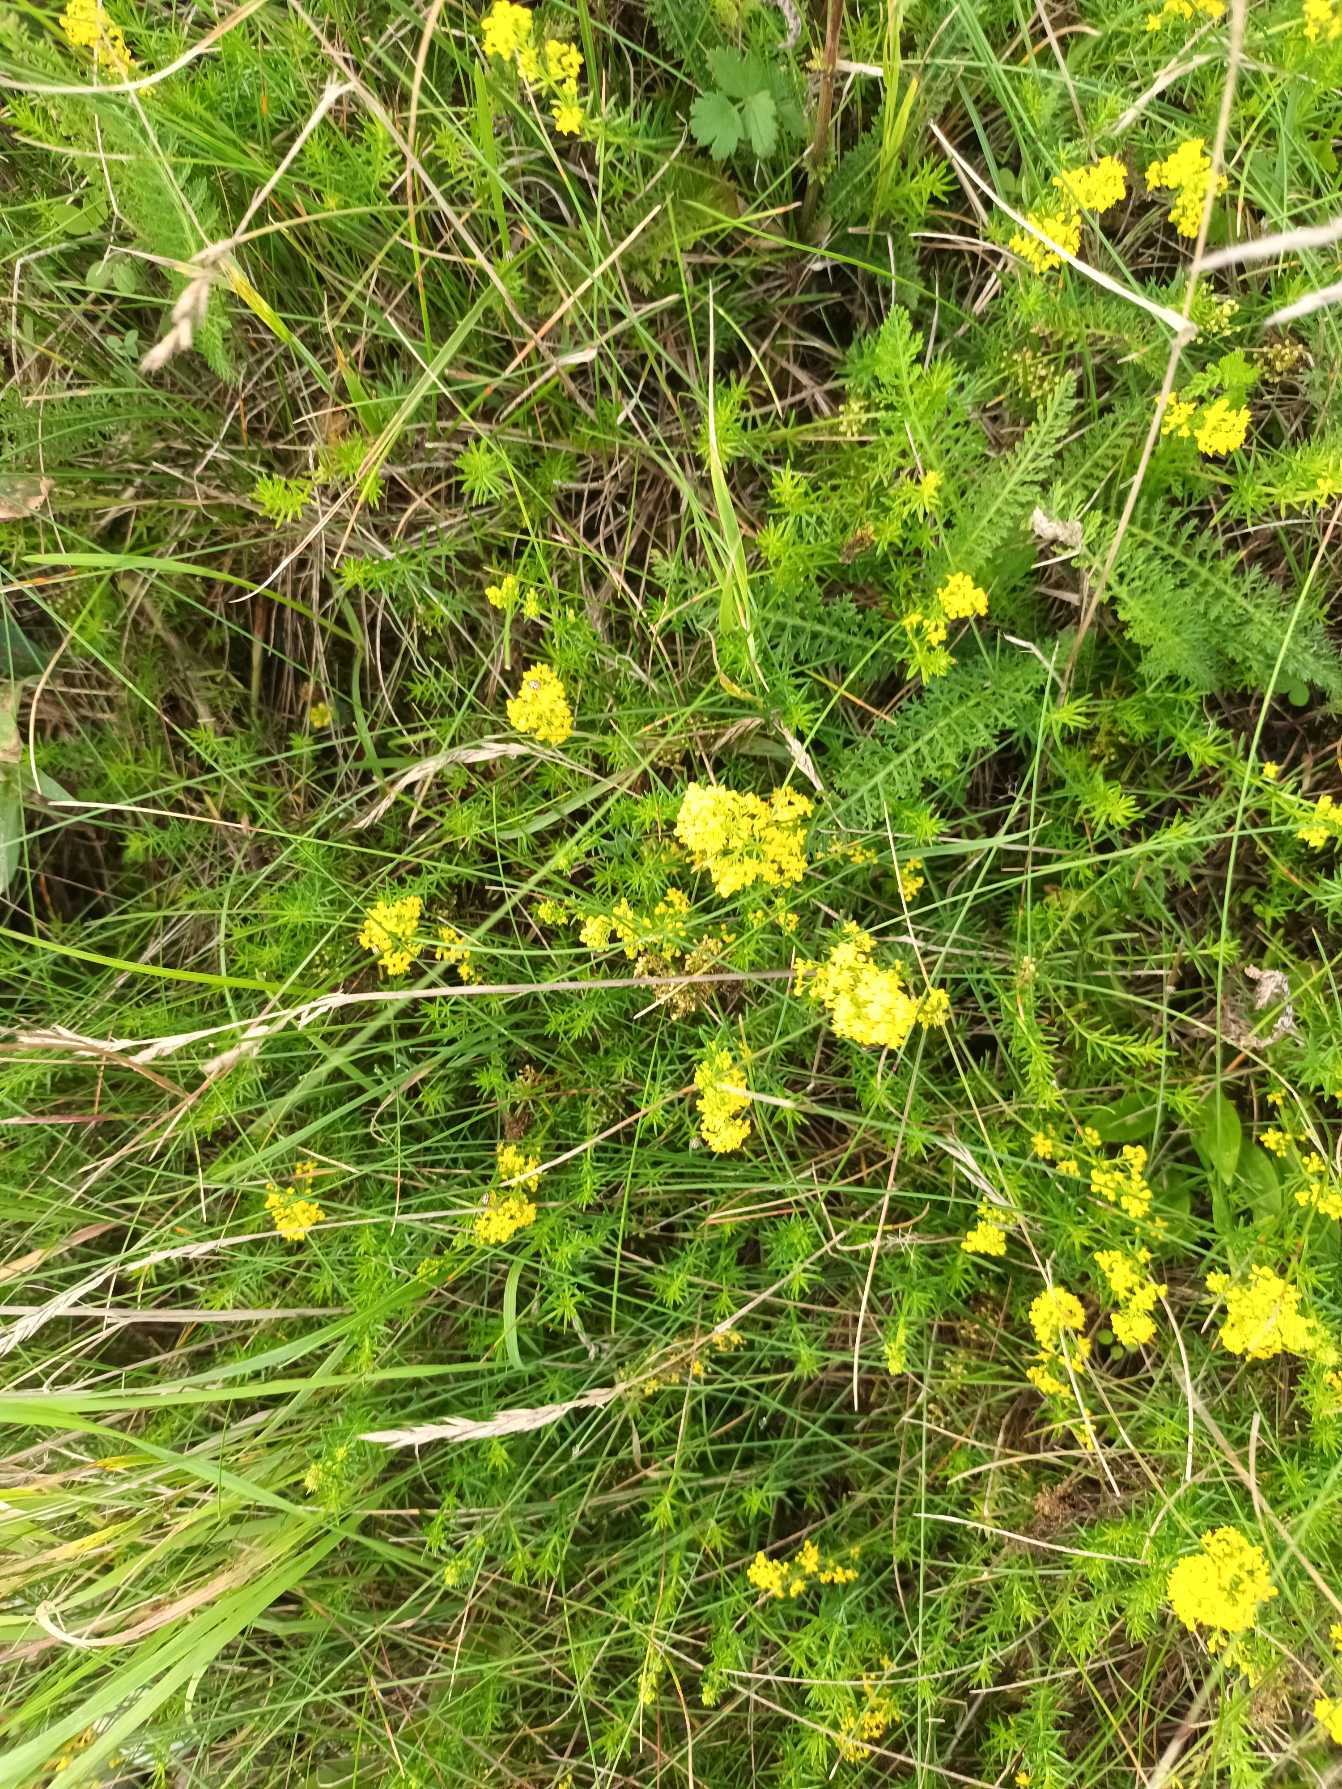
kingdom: Plantae
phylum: Tracheophyta
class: Magnoliopsida
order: Gentianales
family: Rubiaceae
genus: Galium
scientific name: Galium verum
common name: Gul snerre
